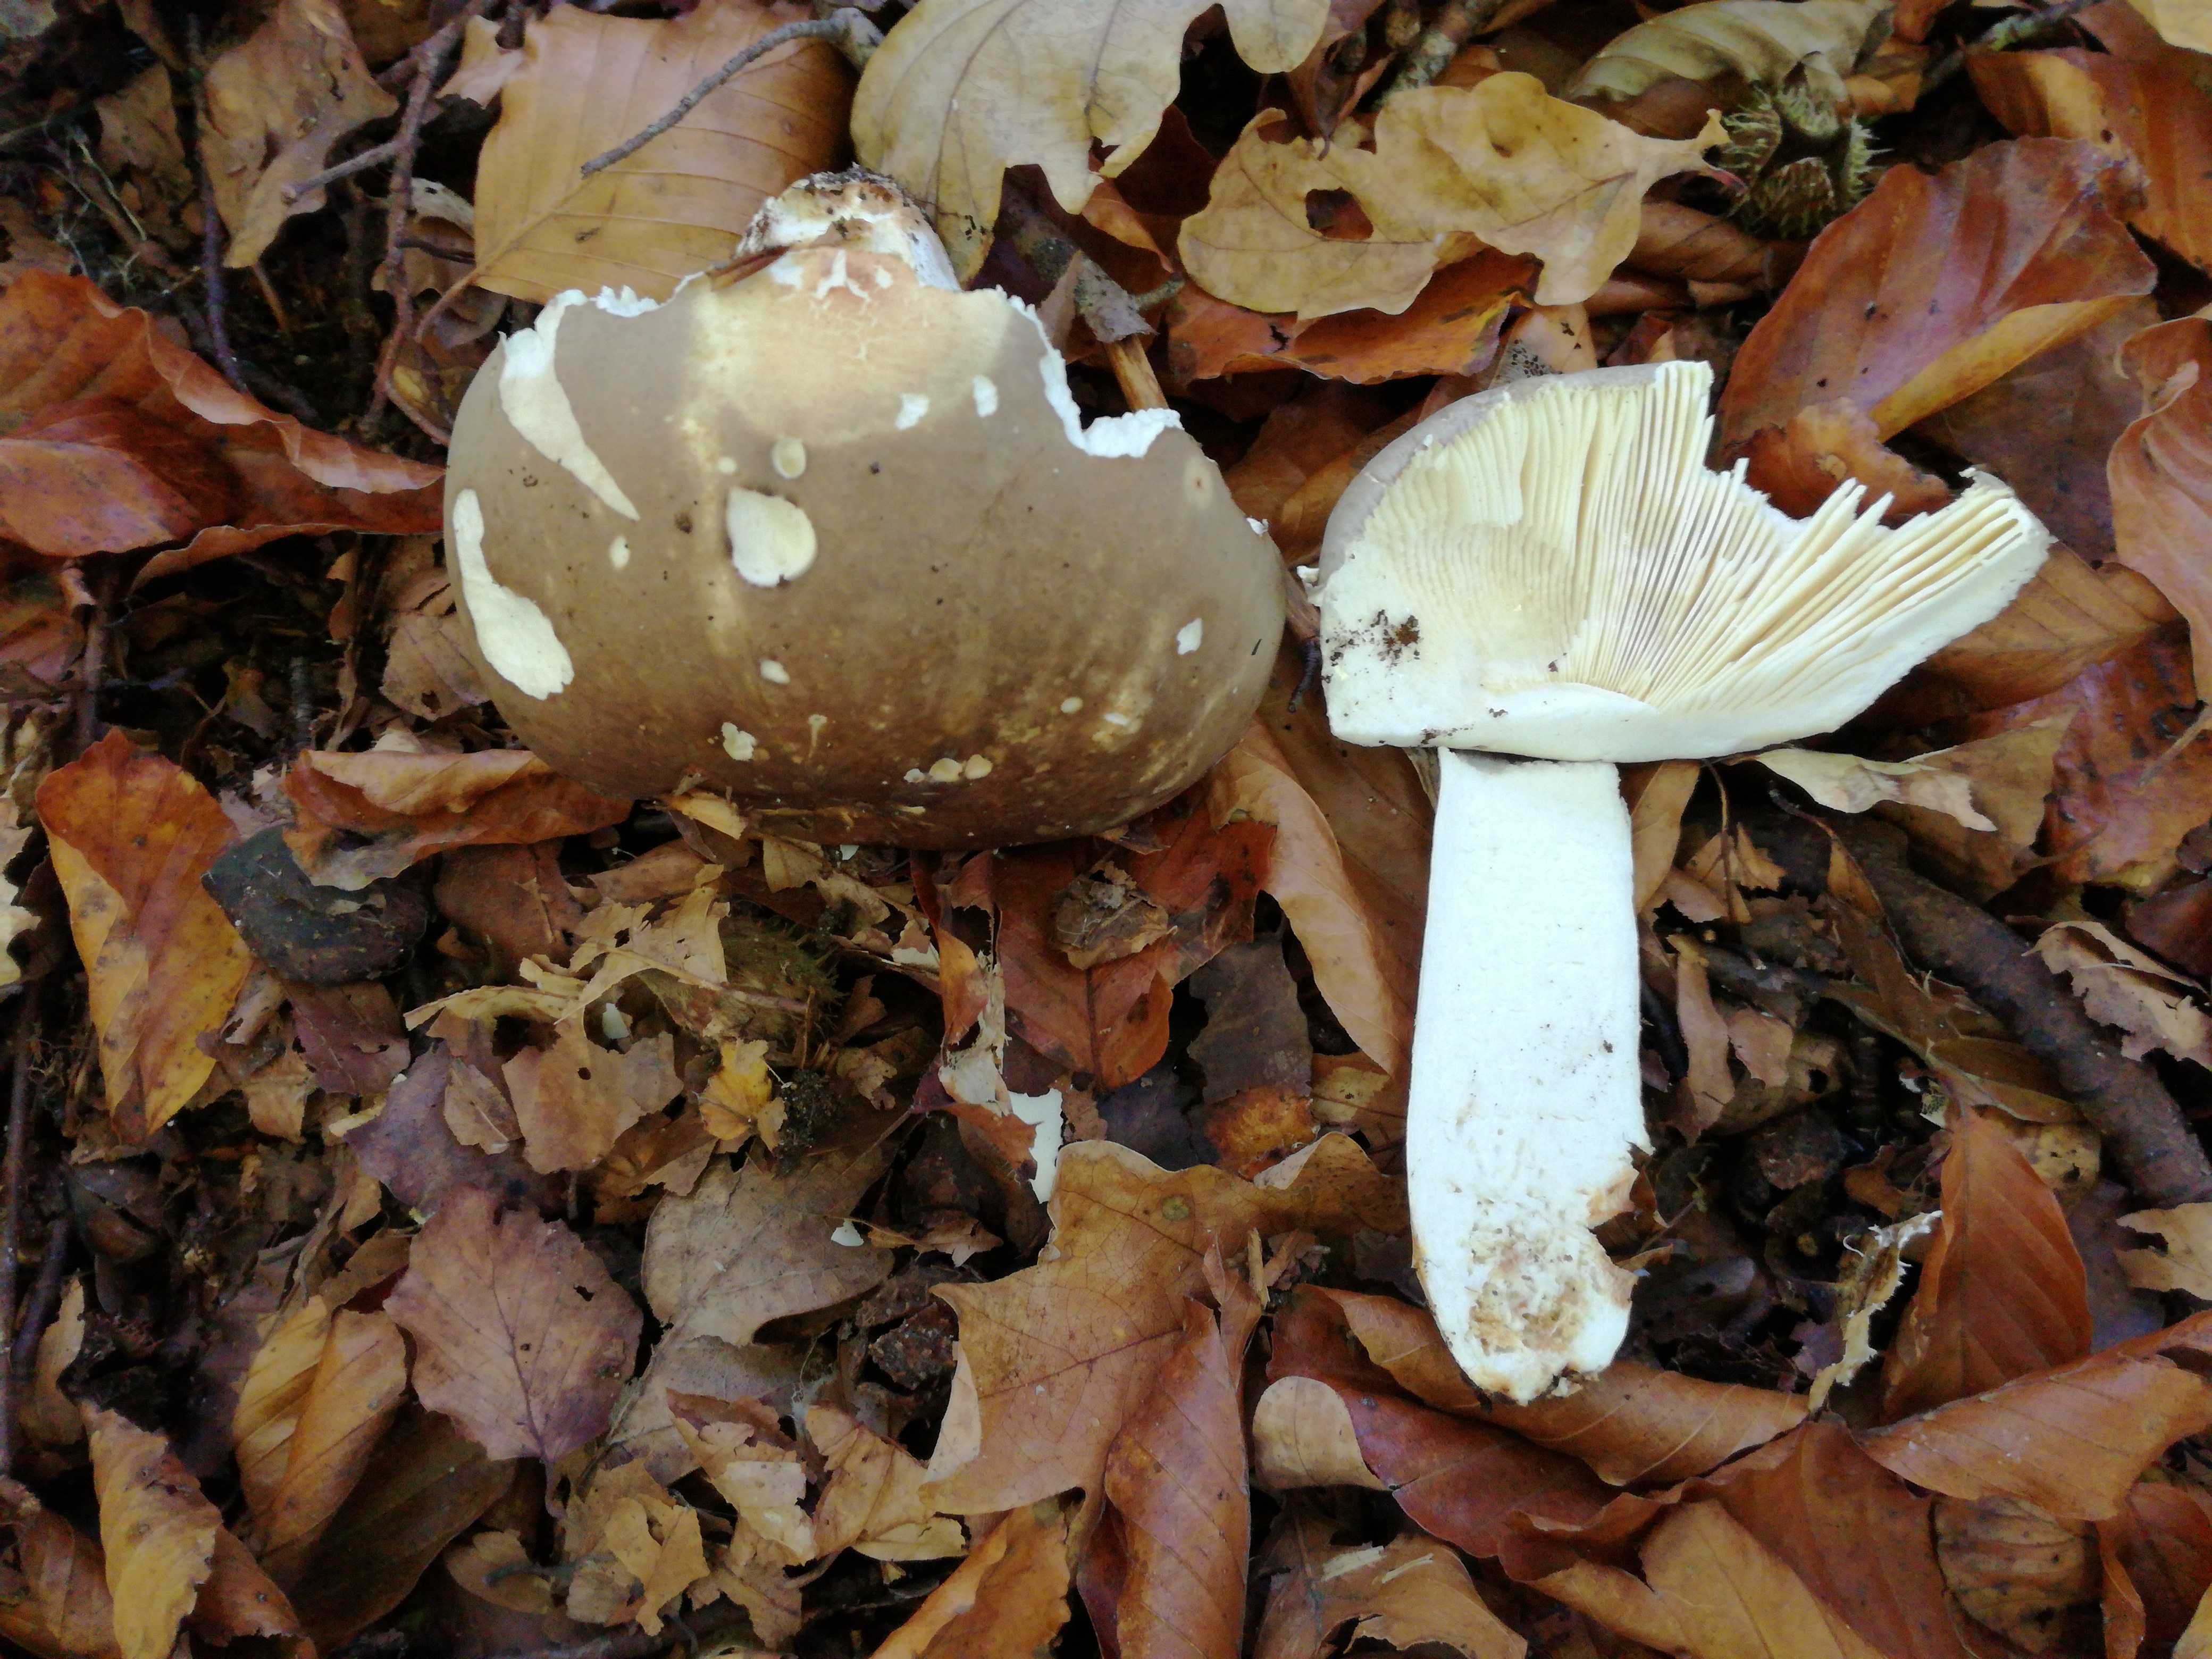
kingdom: Fungi
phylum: Basidiomycota
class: Agaricomycetes
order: Russulales
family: Russulaceae
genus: Russula
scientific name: Russula olivacea
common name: stor skørhat
